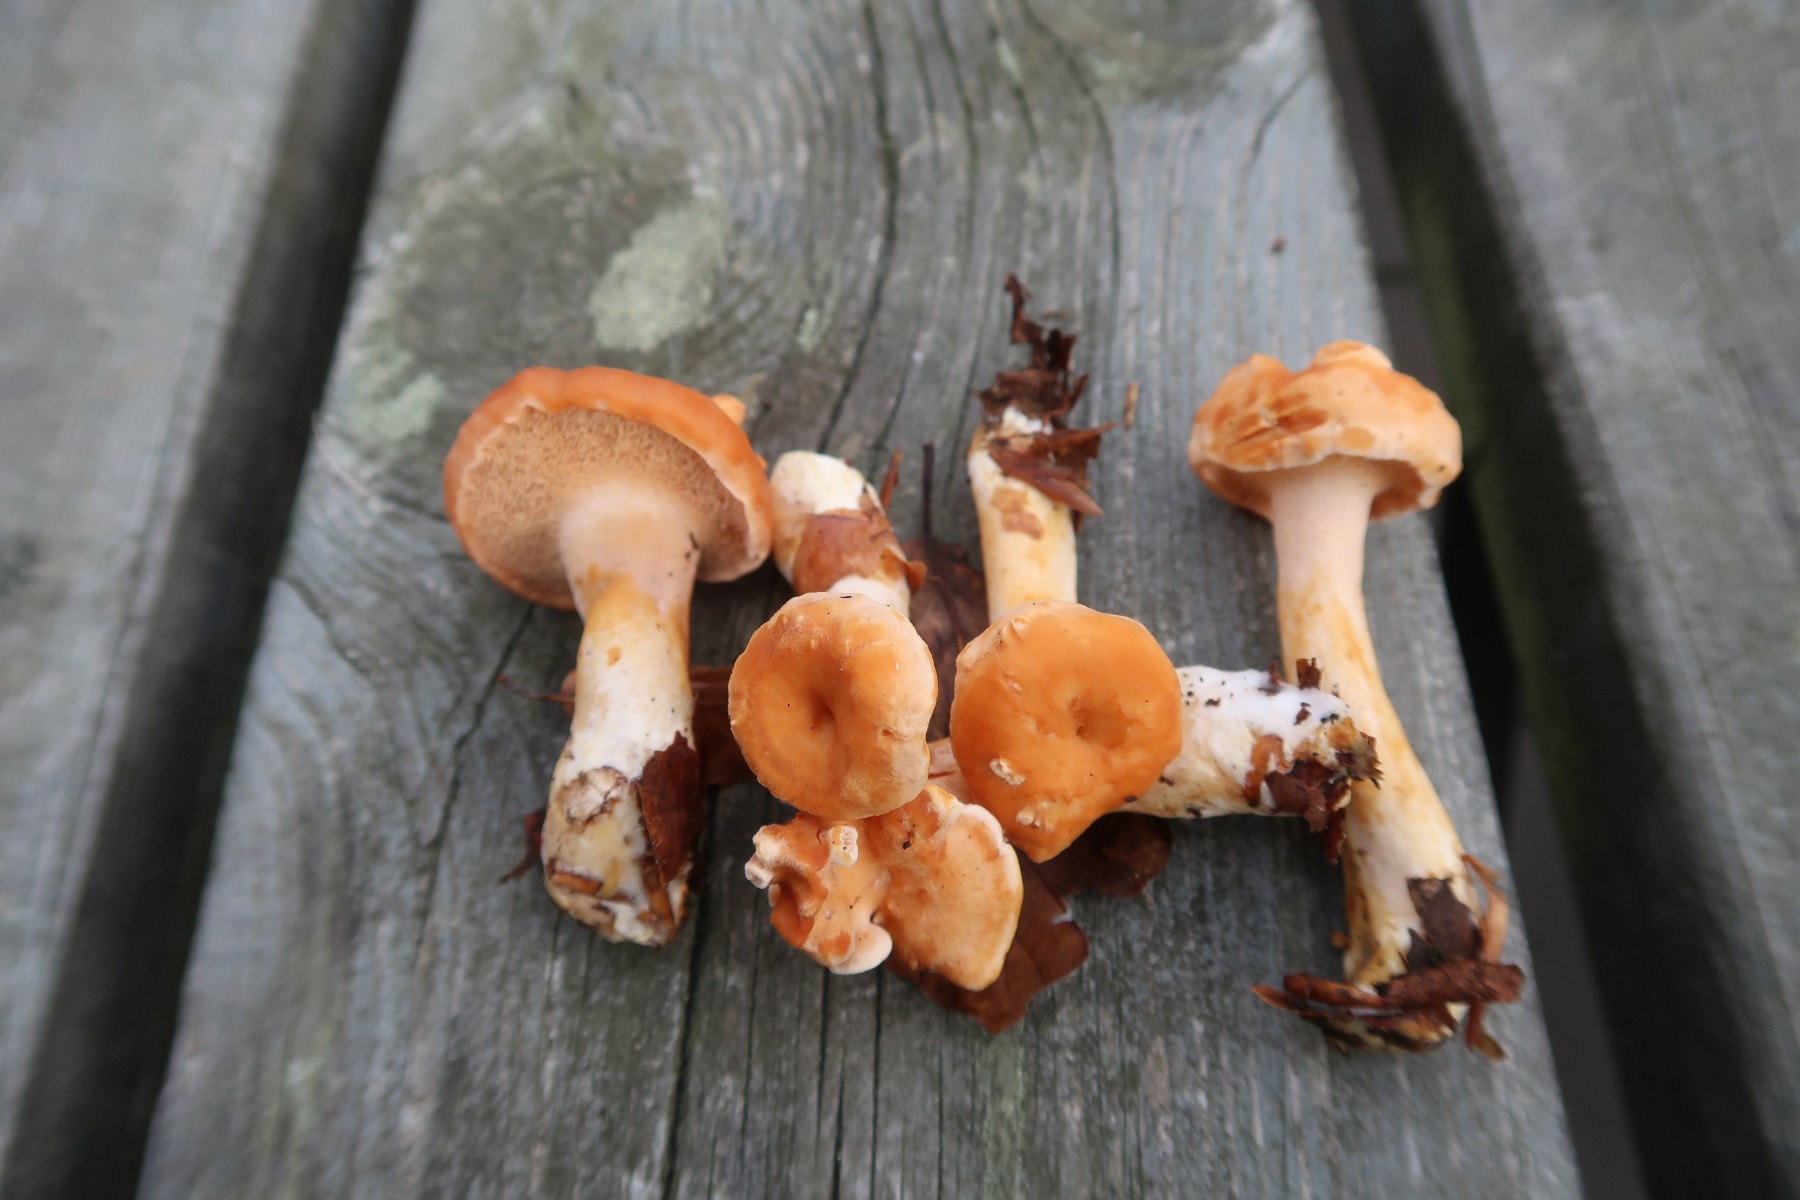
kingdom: Fungi
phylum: Basidiomycota
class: Agaricomycetes
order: Cantharellales
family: Hydnaceae
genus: Hydnum
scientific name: Hydnum umbilicatum
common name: navle-pigsvamp
